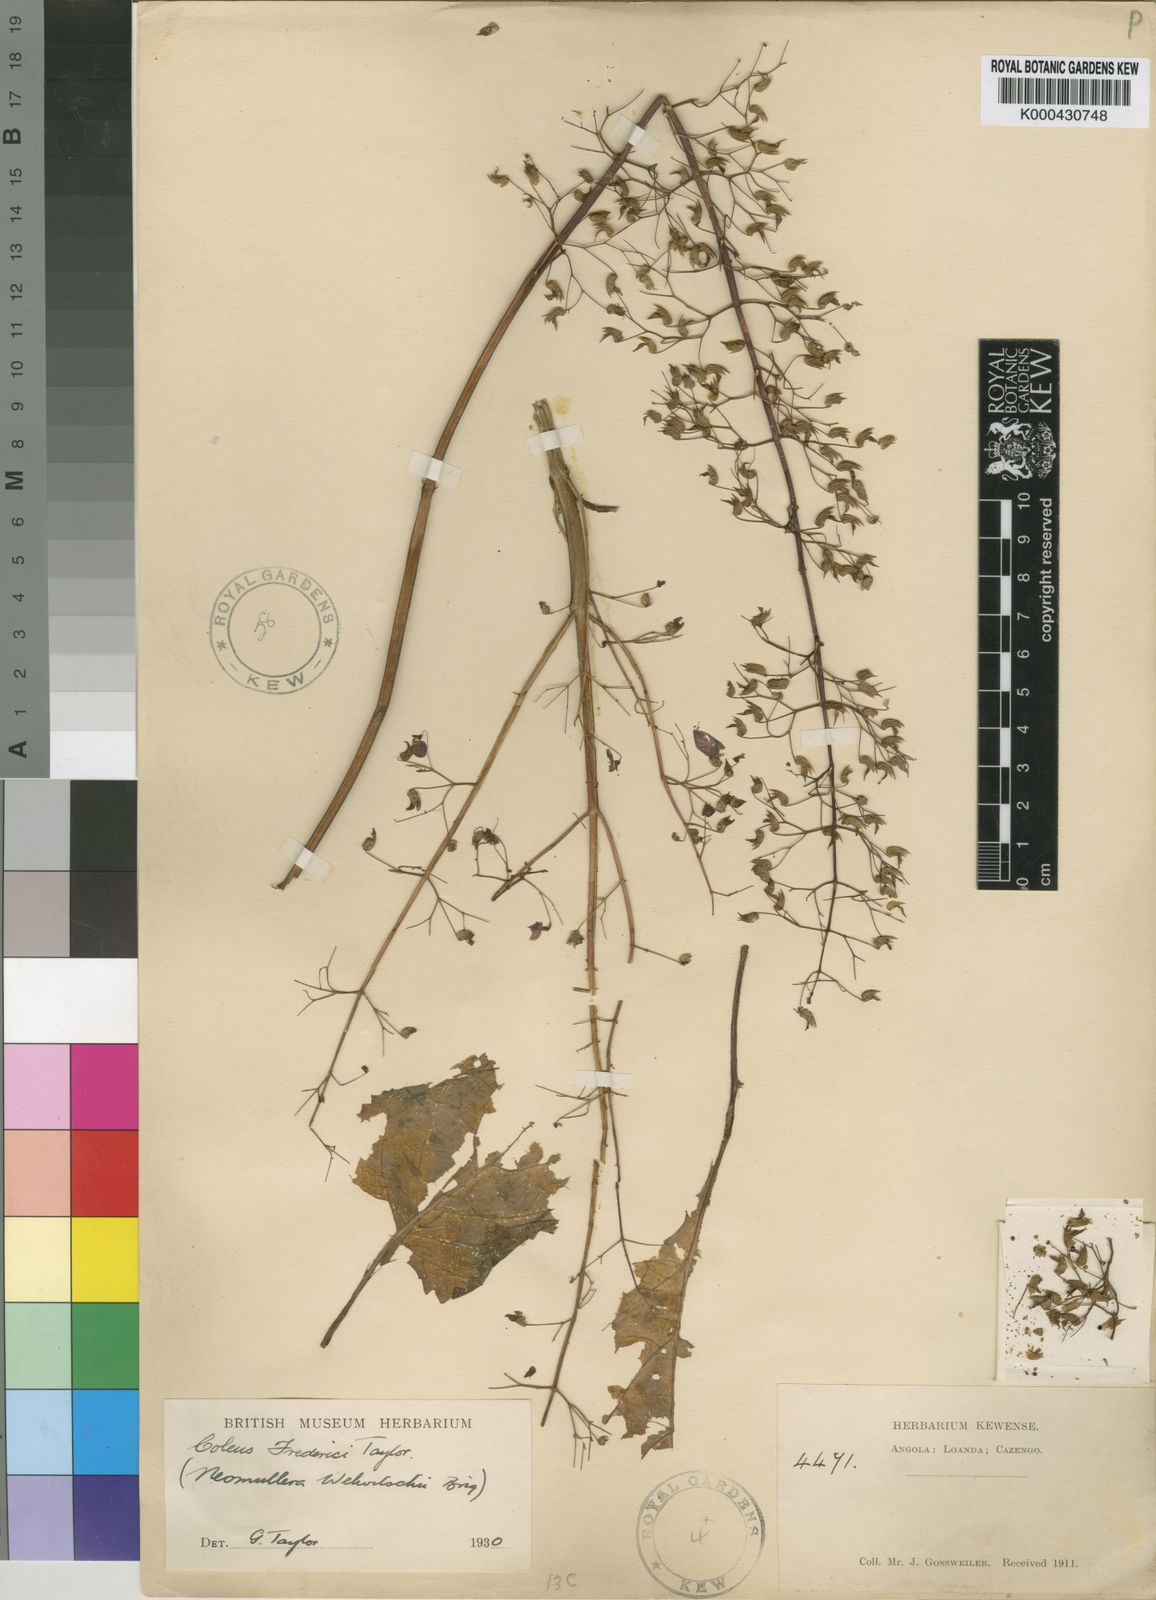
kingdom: Plantae
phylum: Tracheophyta
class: Magnoliopsida
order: Lamiales
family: Lamiaceae
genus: Plectranthus
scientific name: Plectranthus
